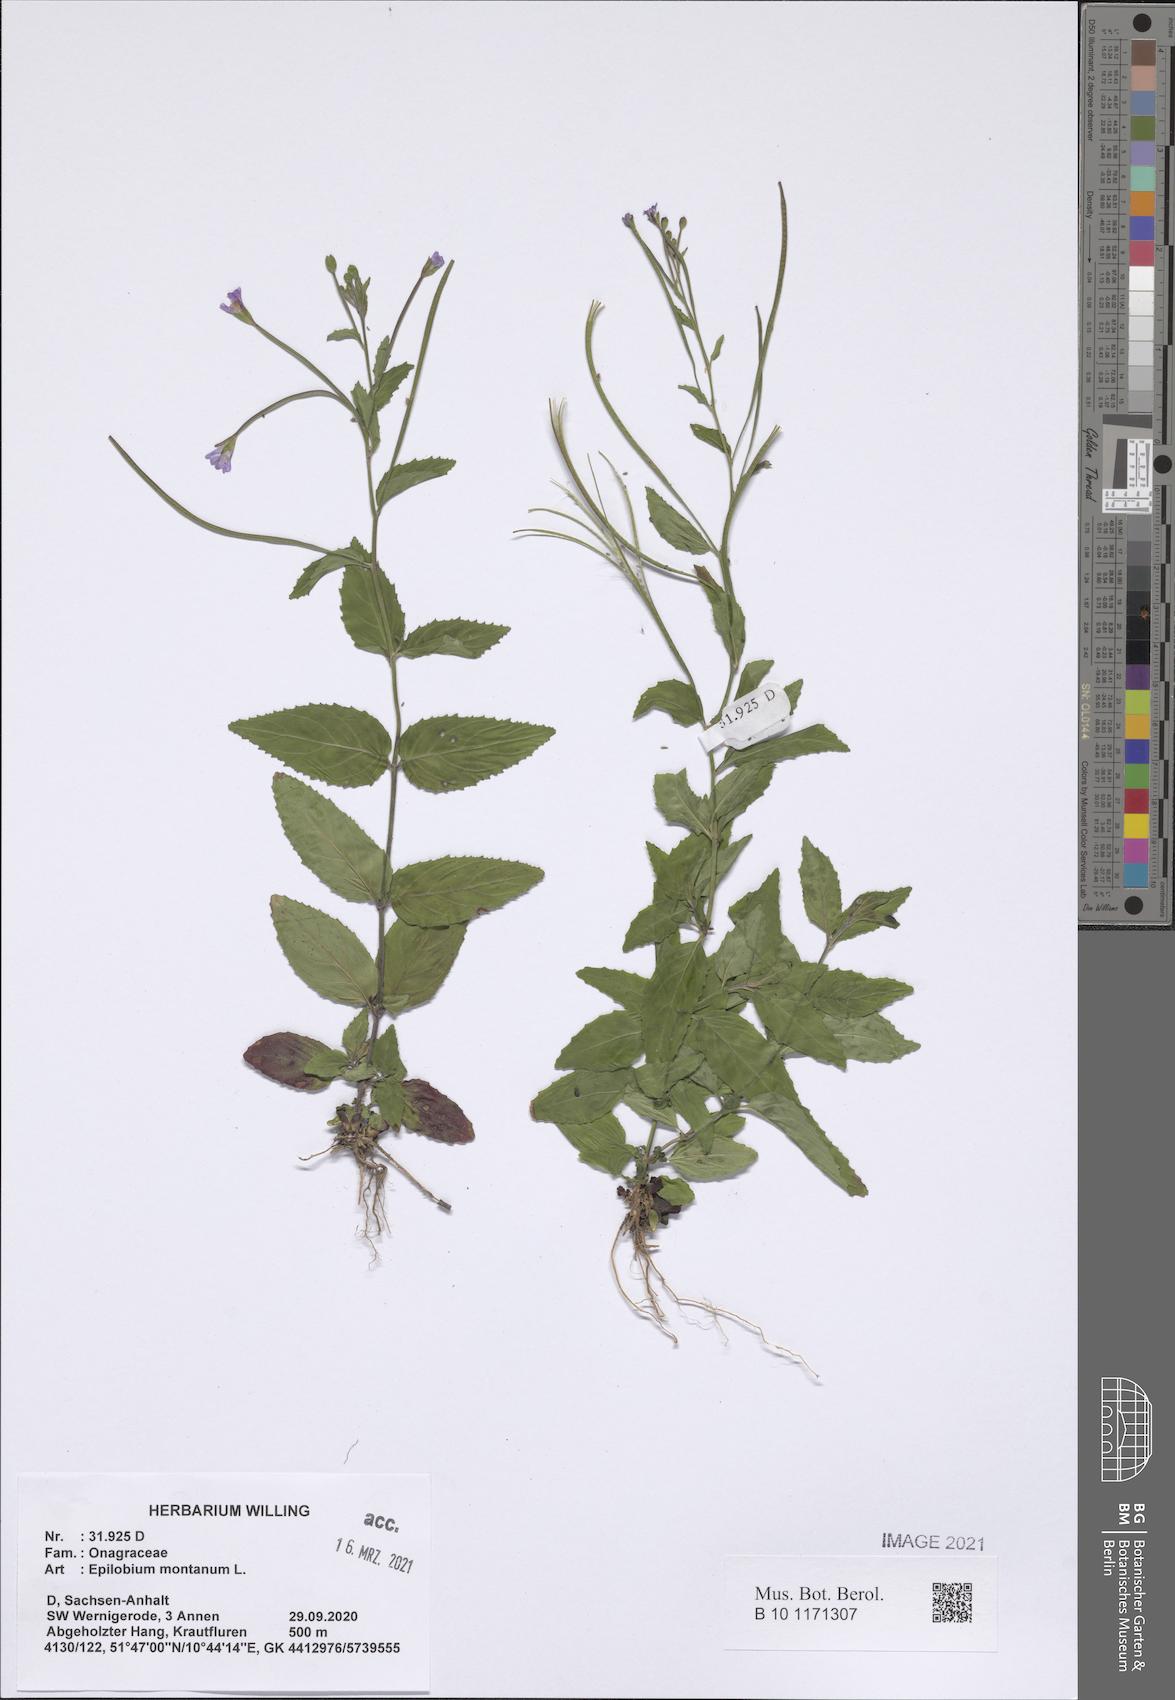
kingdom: Plantae
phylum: Tracheophyta
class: Magnoliopsida
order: Myrtales
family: Onagraceae
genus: Epilobium
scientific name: Epilobium montanum
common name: Broad-leaved willowherb
